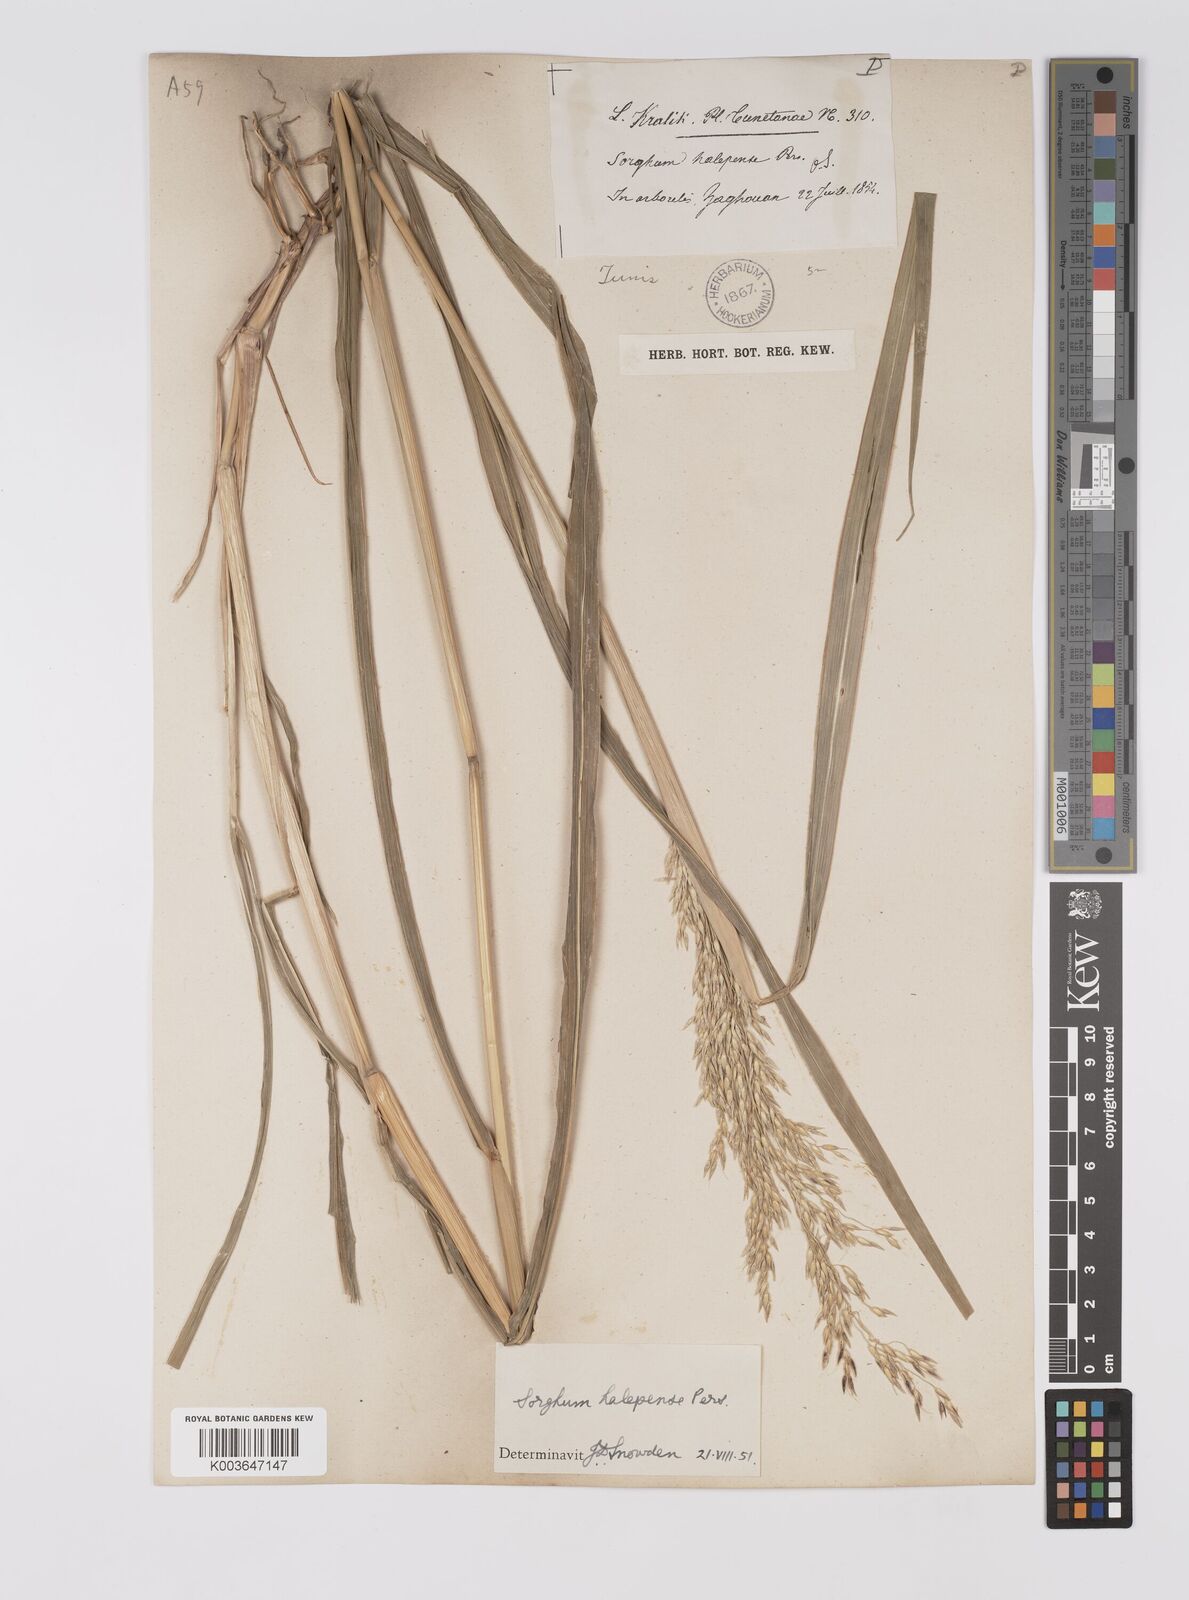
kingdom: Plantae
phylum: Tracheophyta
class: Liliopsida
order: Poales
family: Poaceae
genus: Sorghum
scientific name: Sorghum halepense
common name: Johnson-grass
